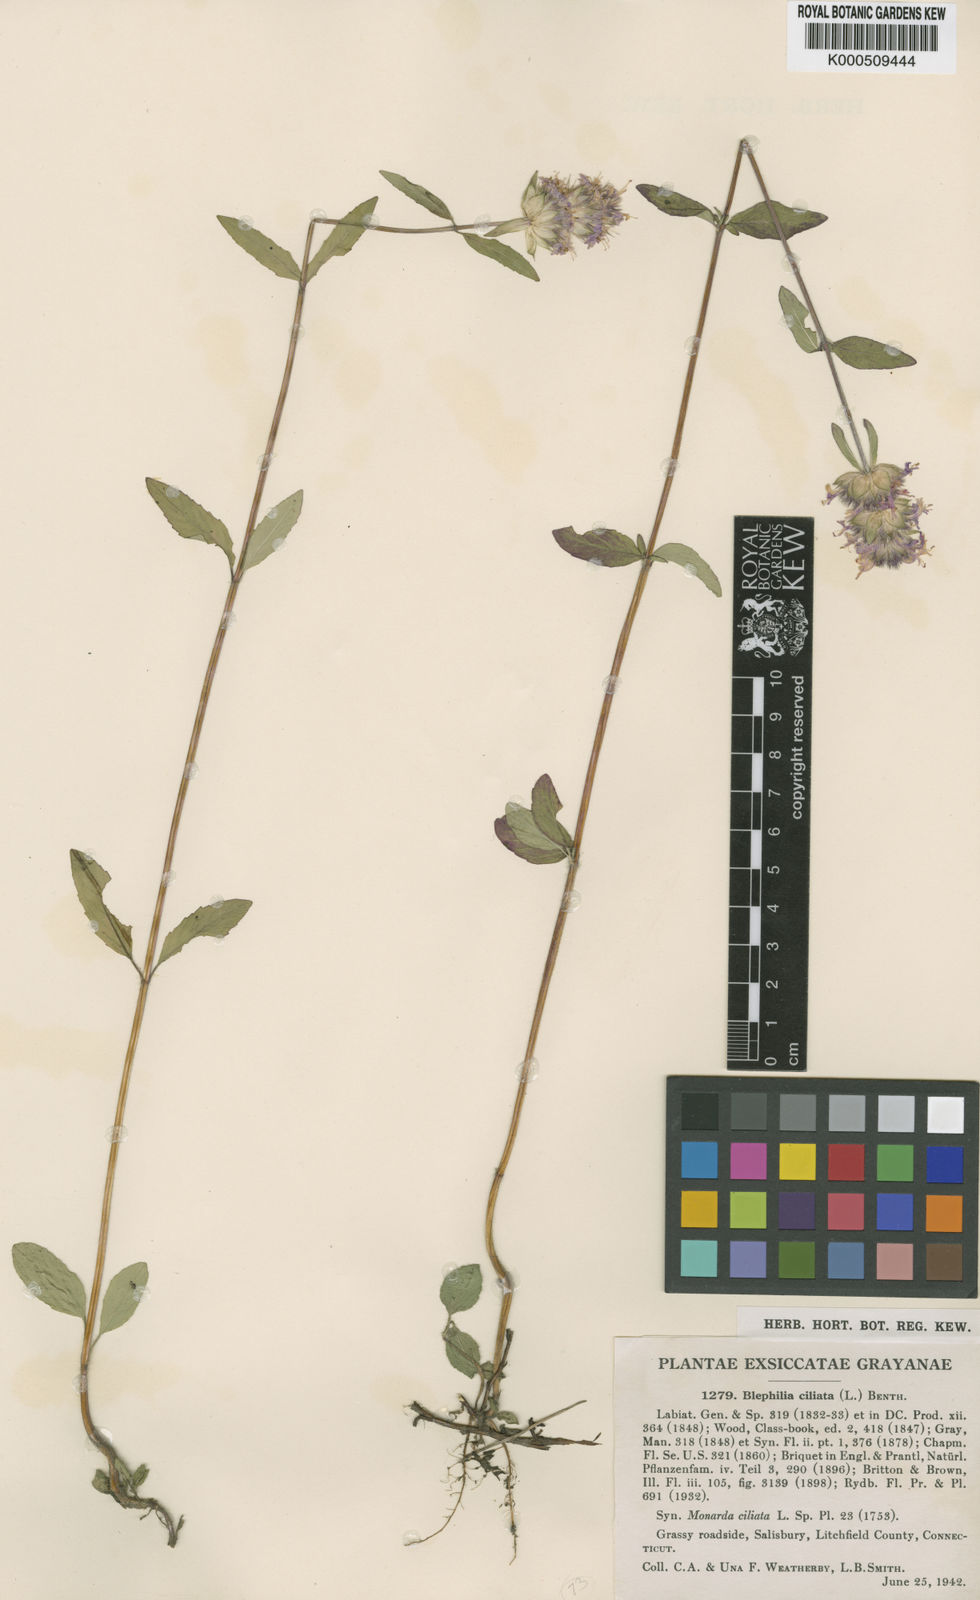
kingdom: Plantae
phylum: Tracheophyta
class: Magnoliopsida
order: Lamiales
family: Lamiaceae
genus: Blephilia
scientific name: Blephilia ciliata
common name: Downy blephilia
